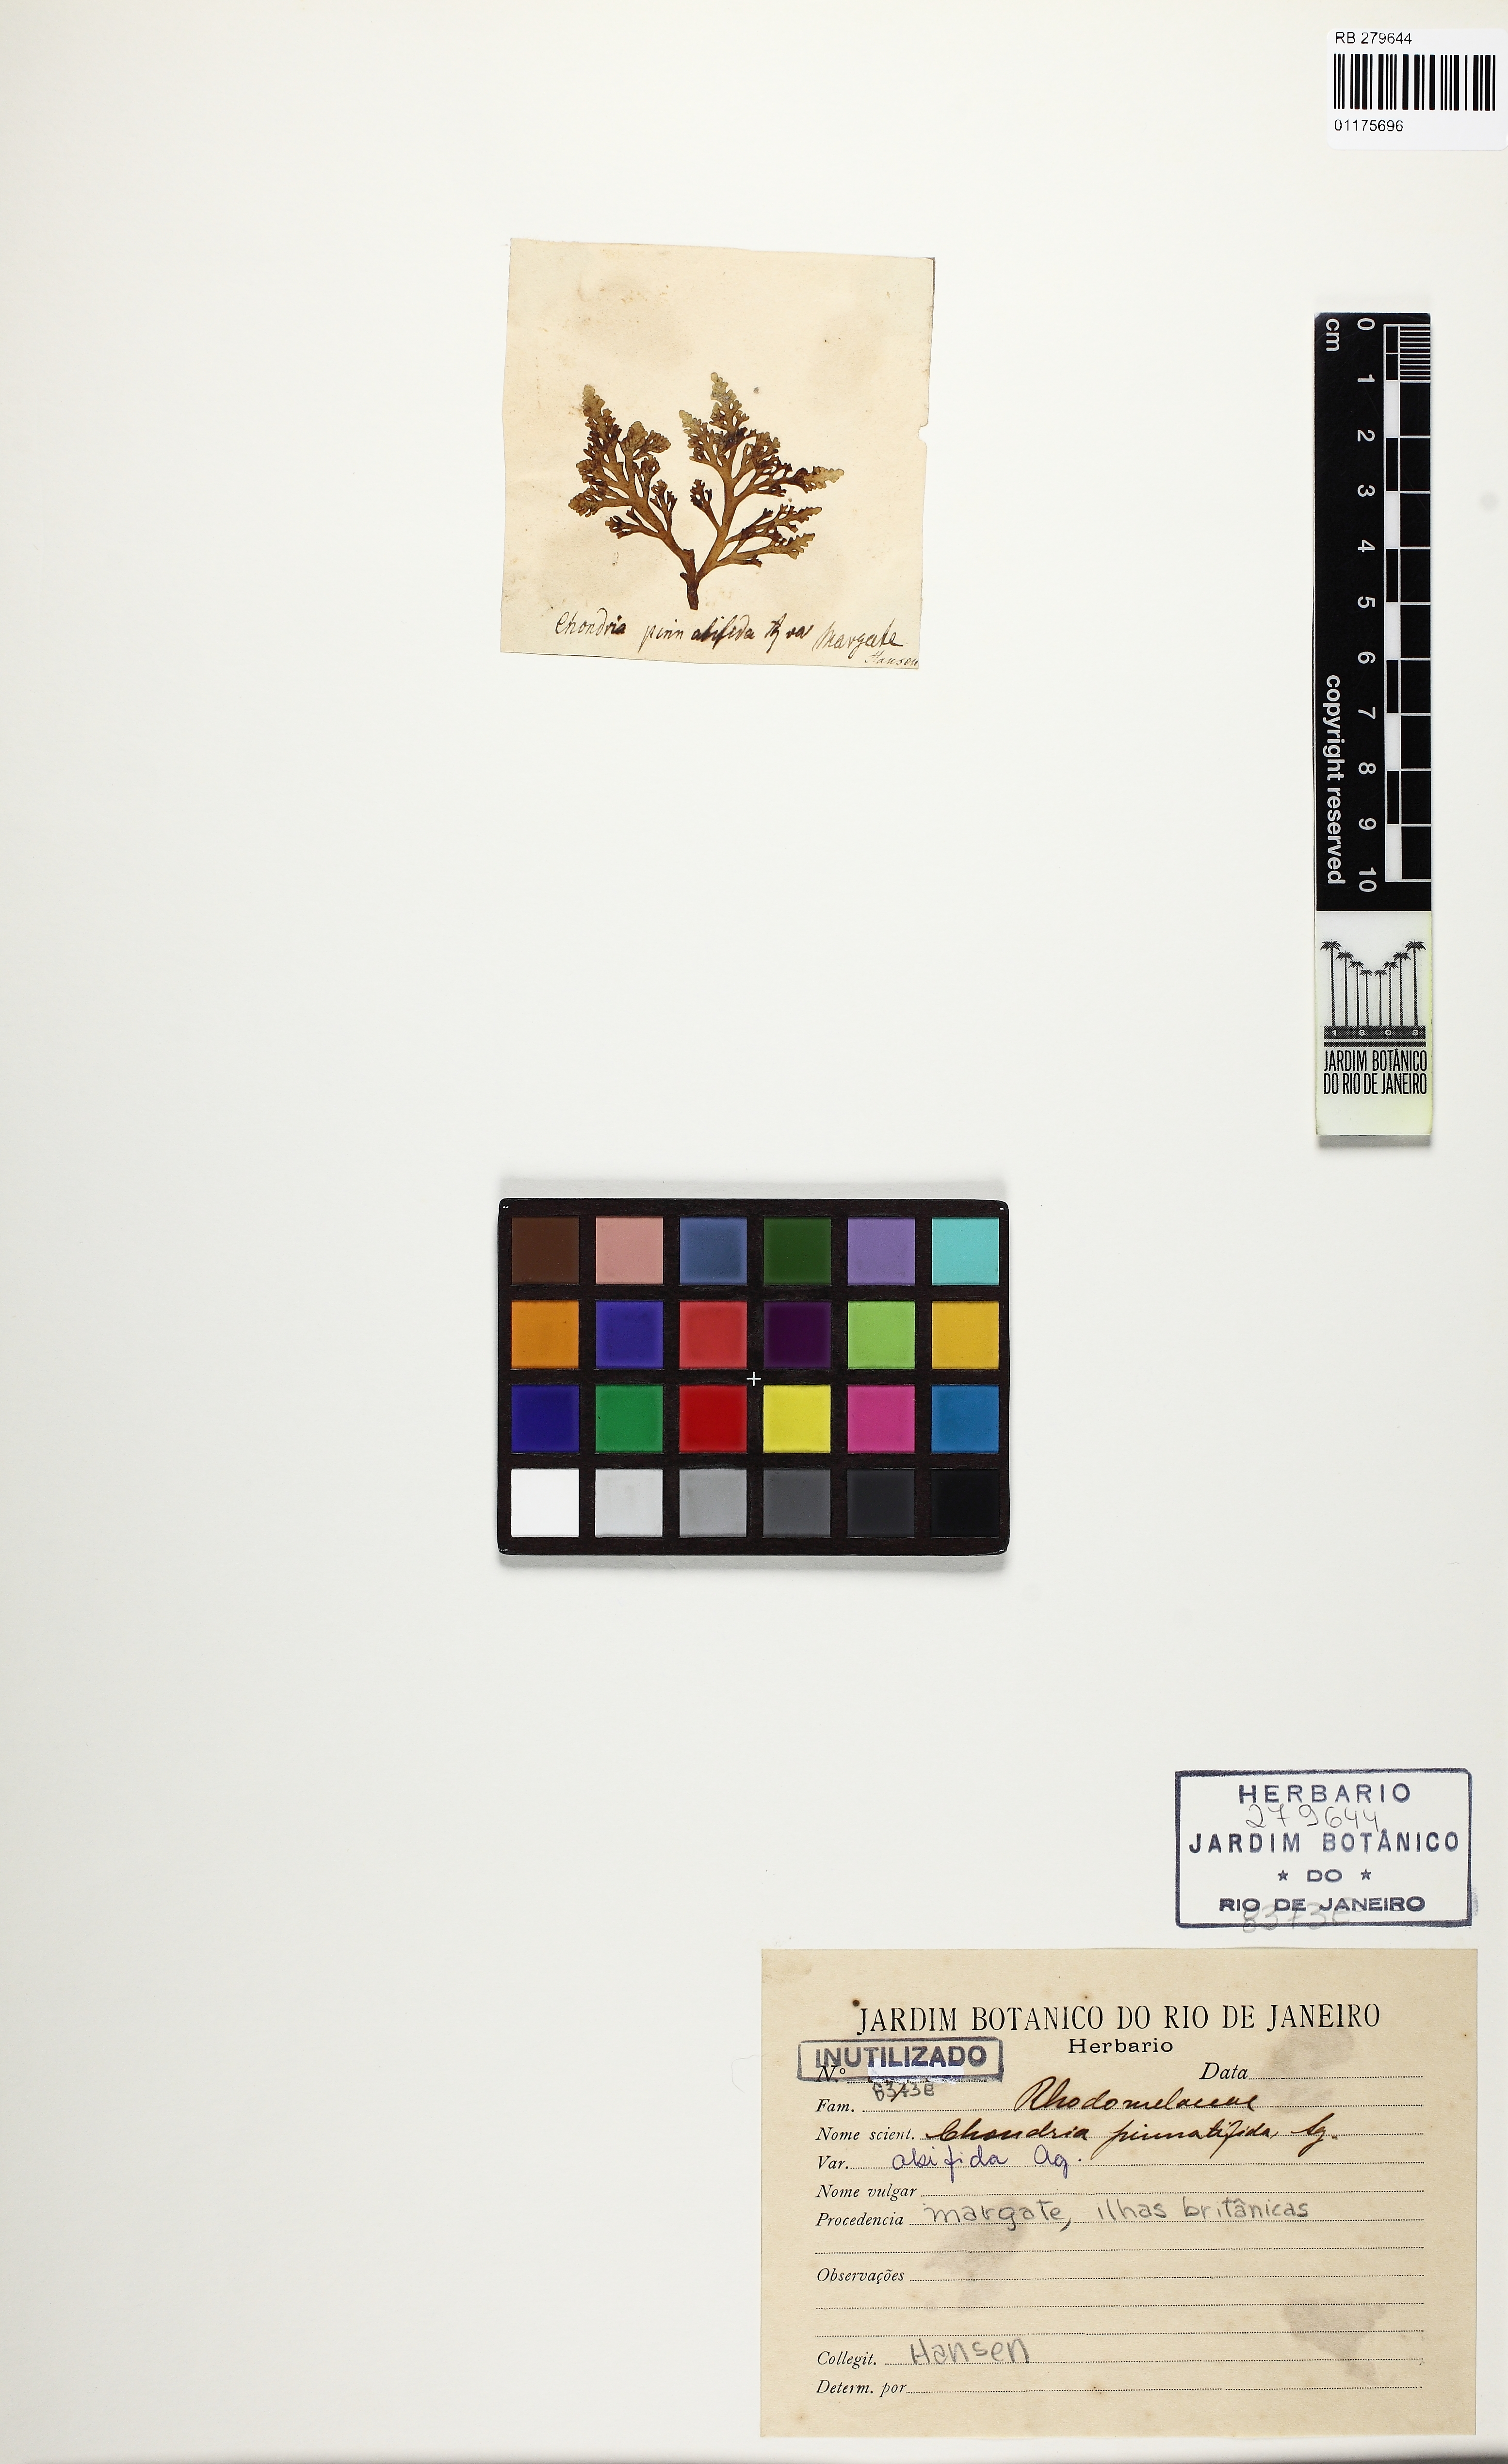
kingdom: Plantae
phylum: Rhodophyta
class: Florideophyceae
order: Ceramiales
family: Rhodomelaceae
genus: Laurencia
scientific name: Laurencia Osmundea pinnatifida
